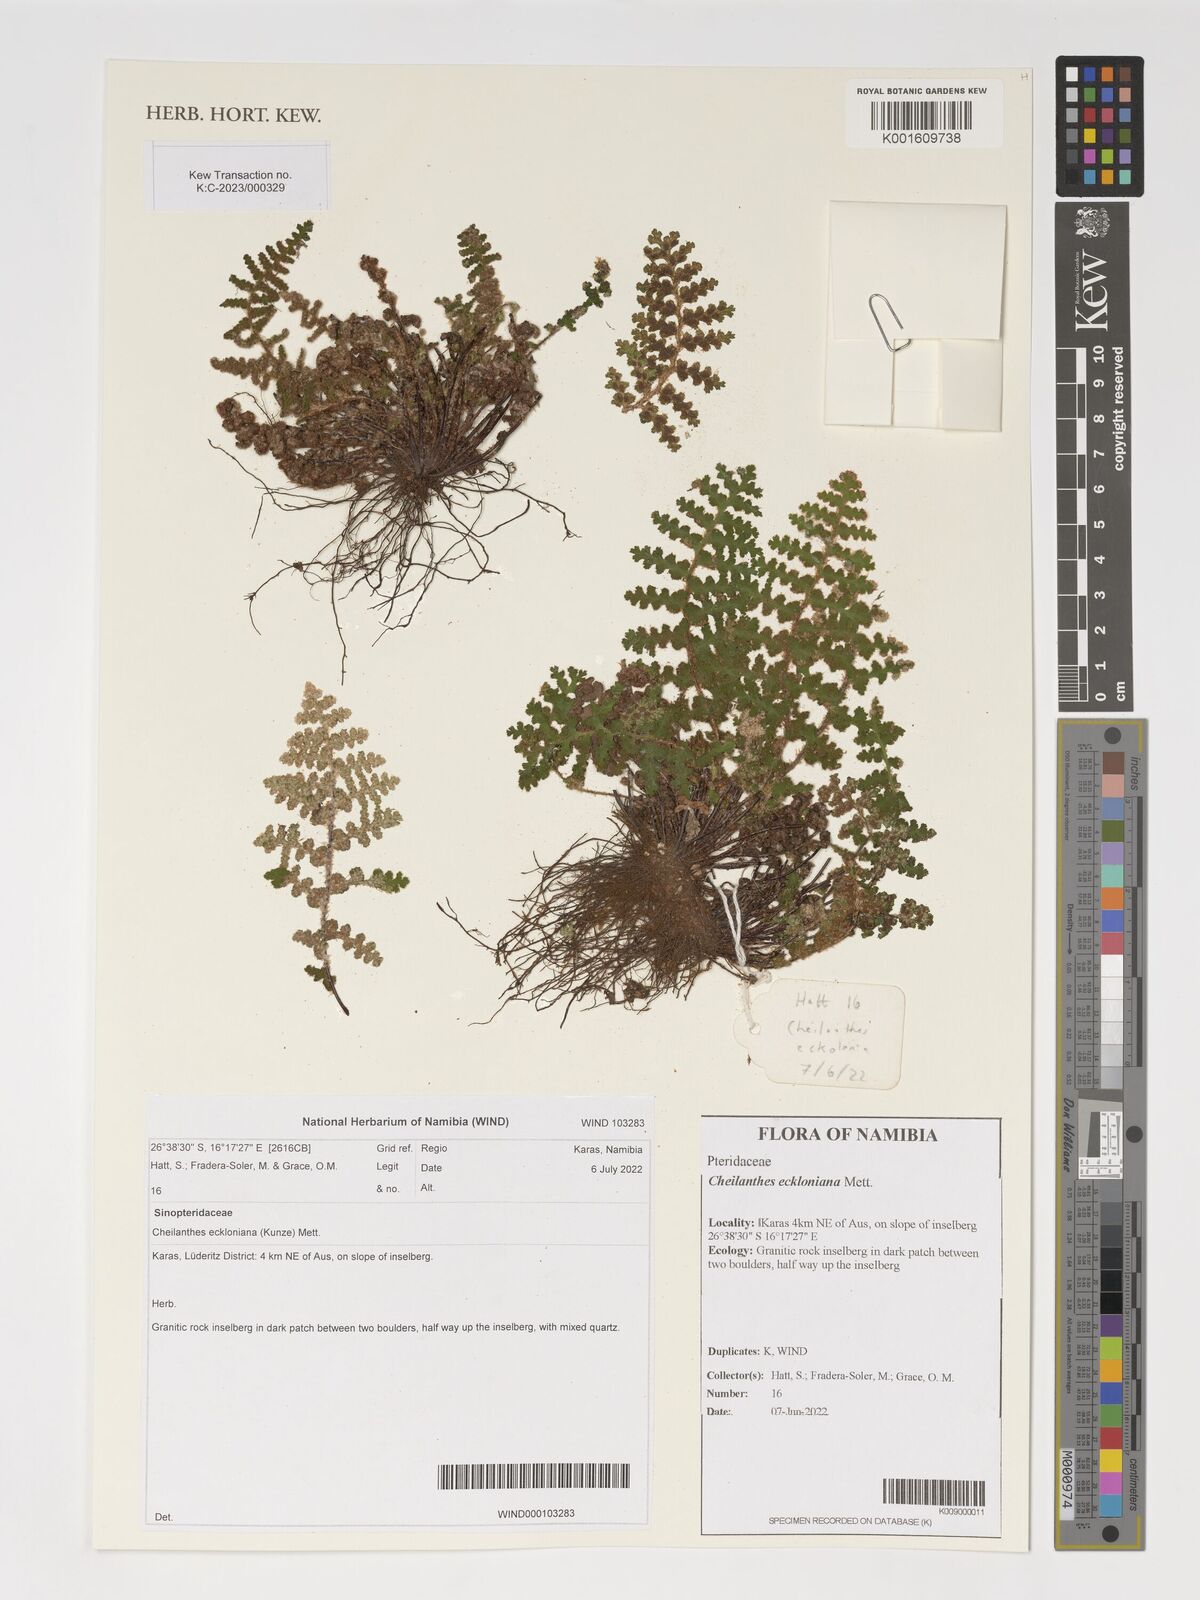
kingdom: Plantae
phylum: Tracheophyta
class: Polypodiopsida
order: Polypodiales
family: Pteridaceae
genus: Cheilanthes
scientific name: Cheilanthes eckloniana
